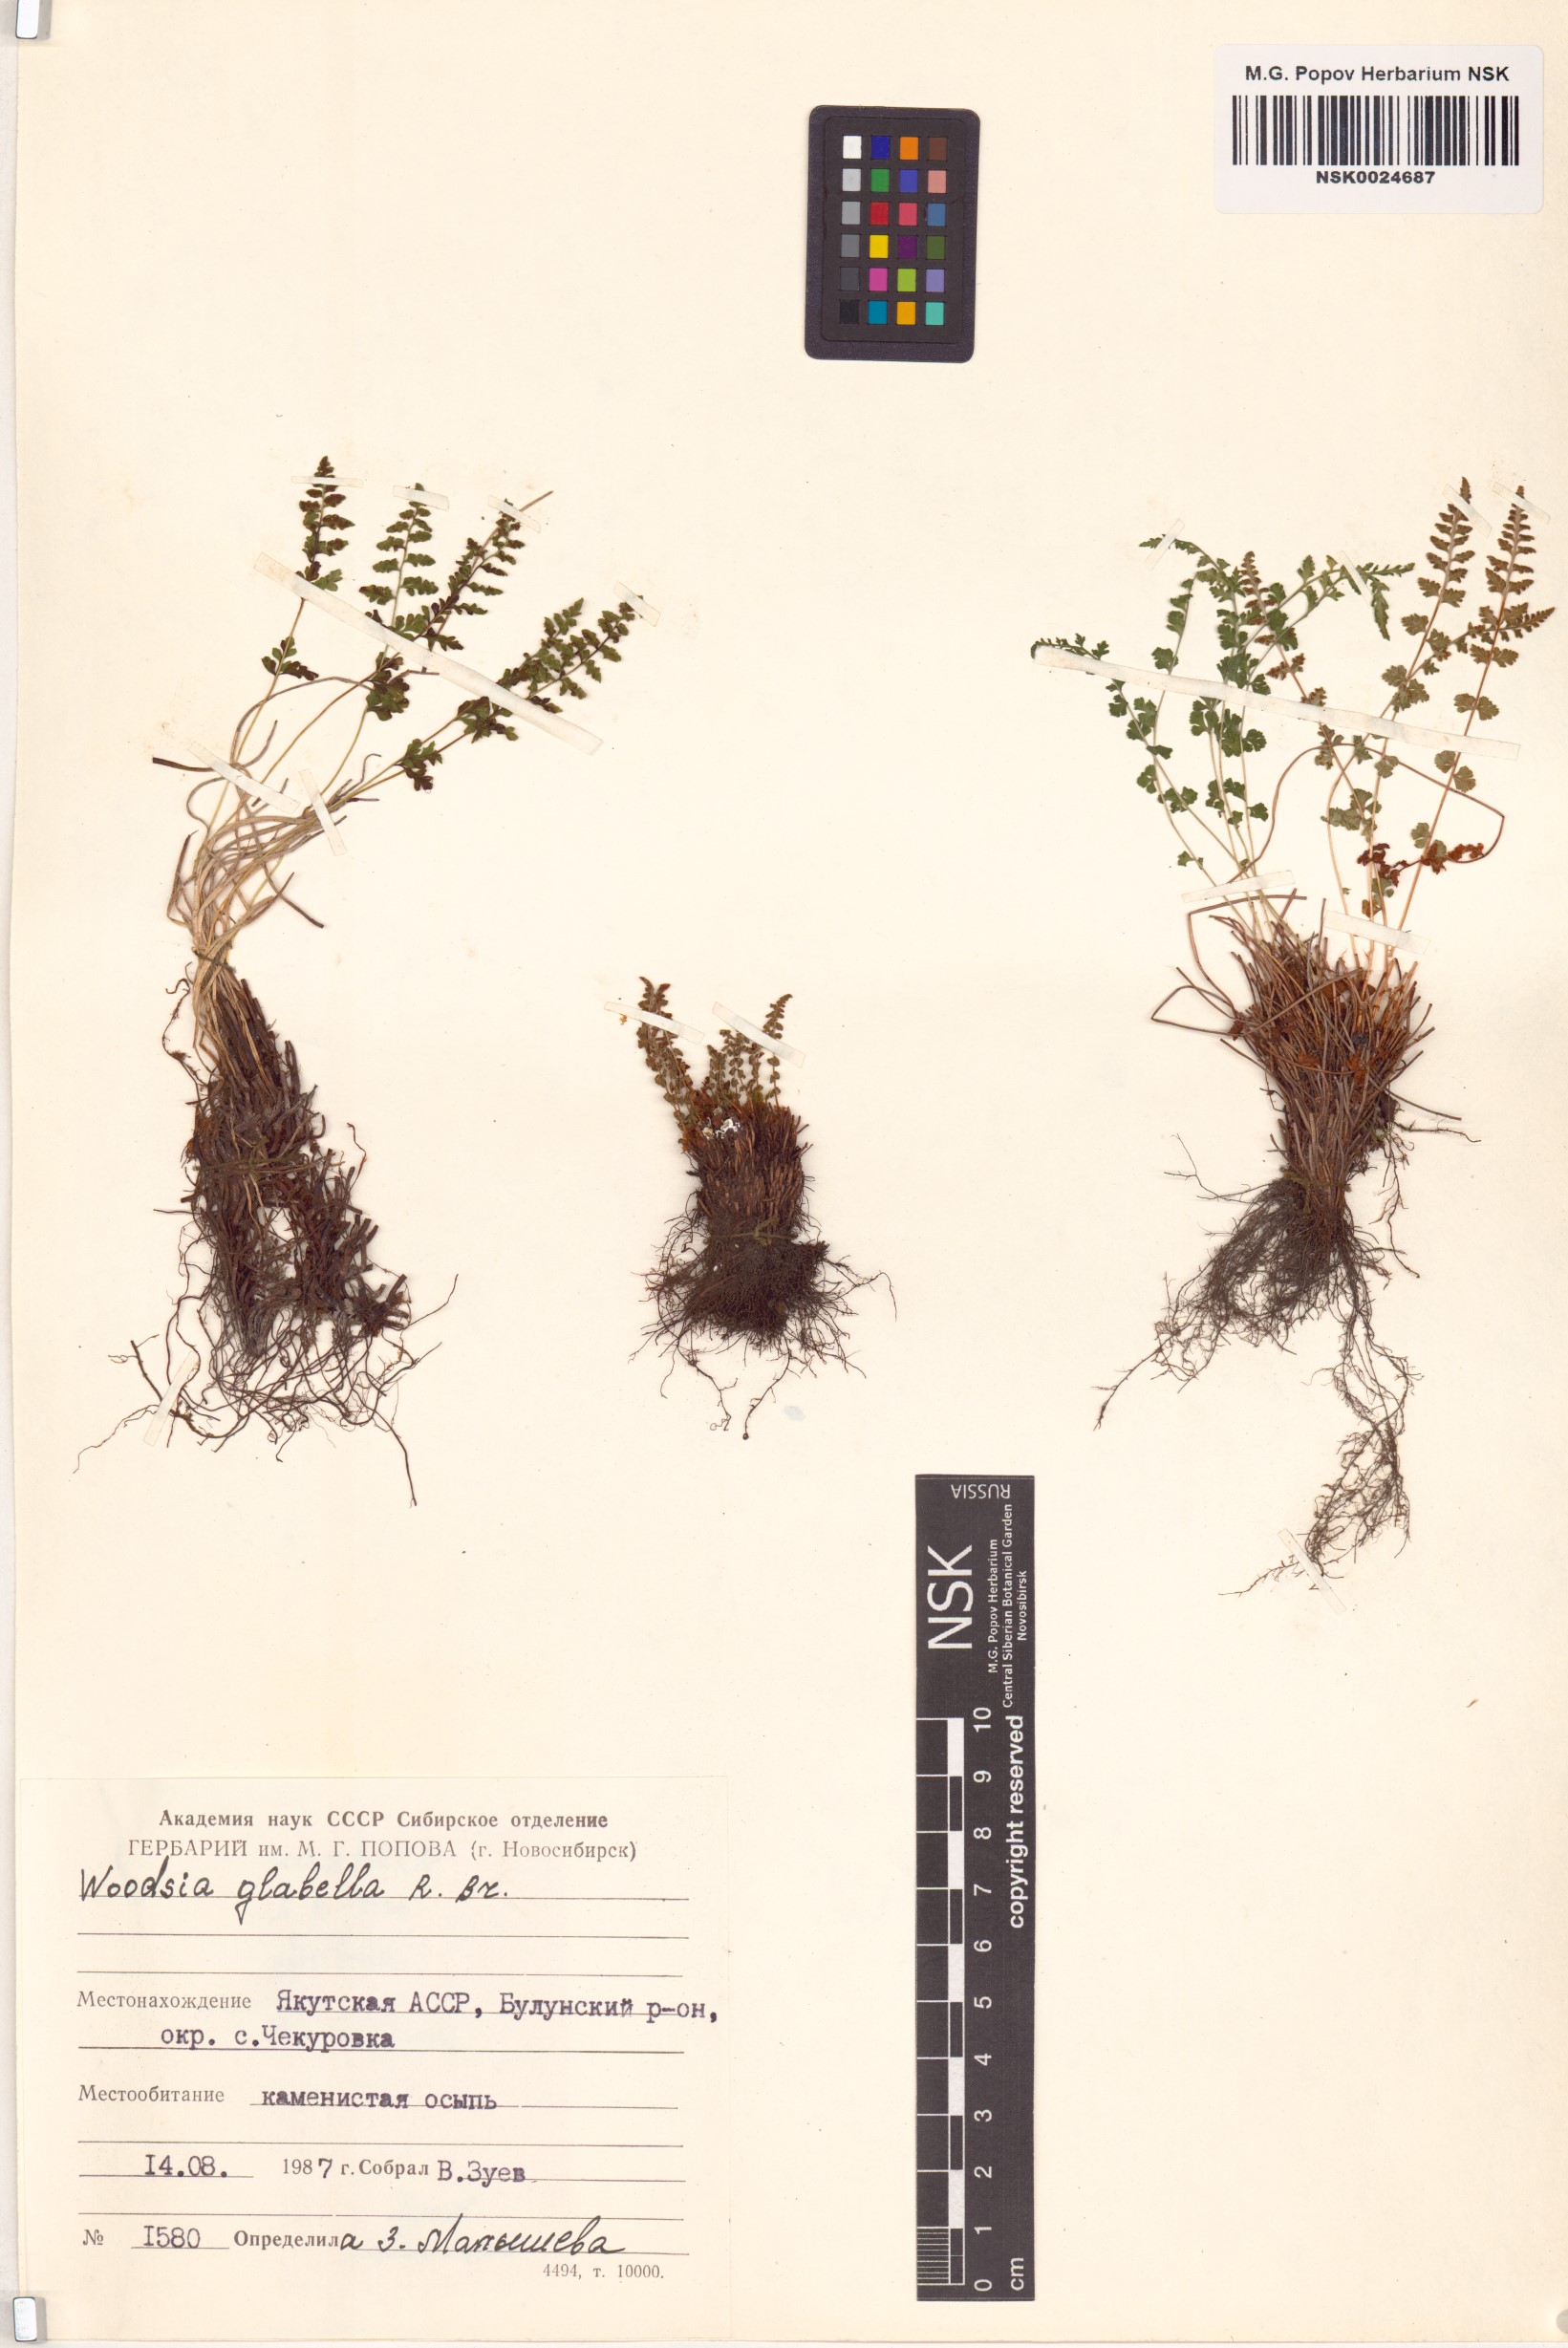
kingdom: Plantae
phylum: Tracheophyta
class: Polypodiopsida
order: Polypodiales
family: Woodsiaceae
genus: Woodsia
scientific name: Woodsia glabella
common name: Smooth woodsia
